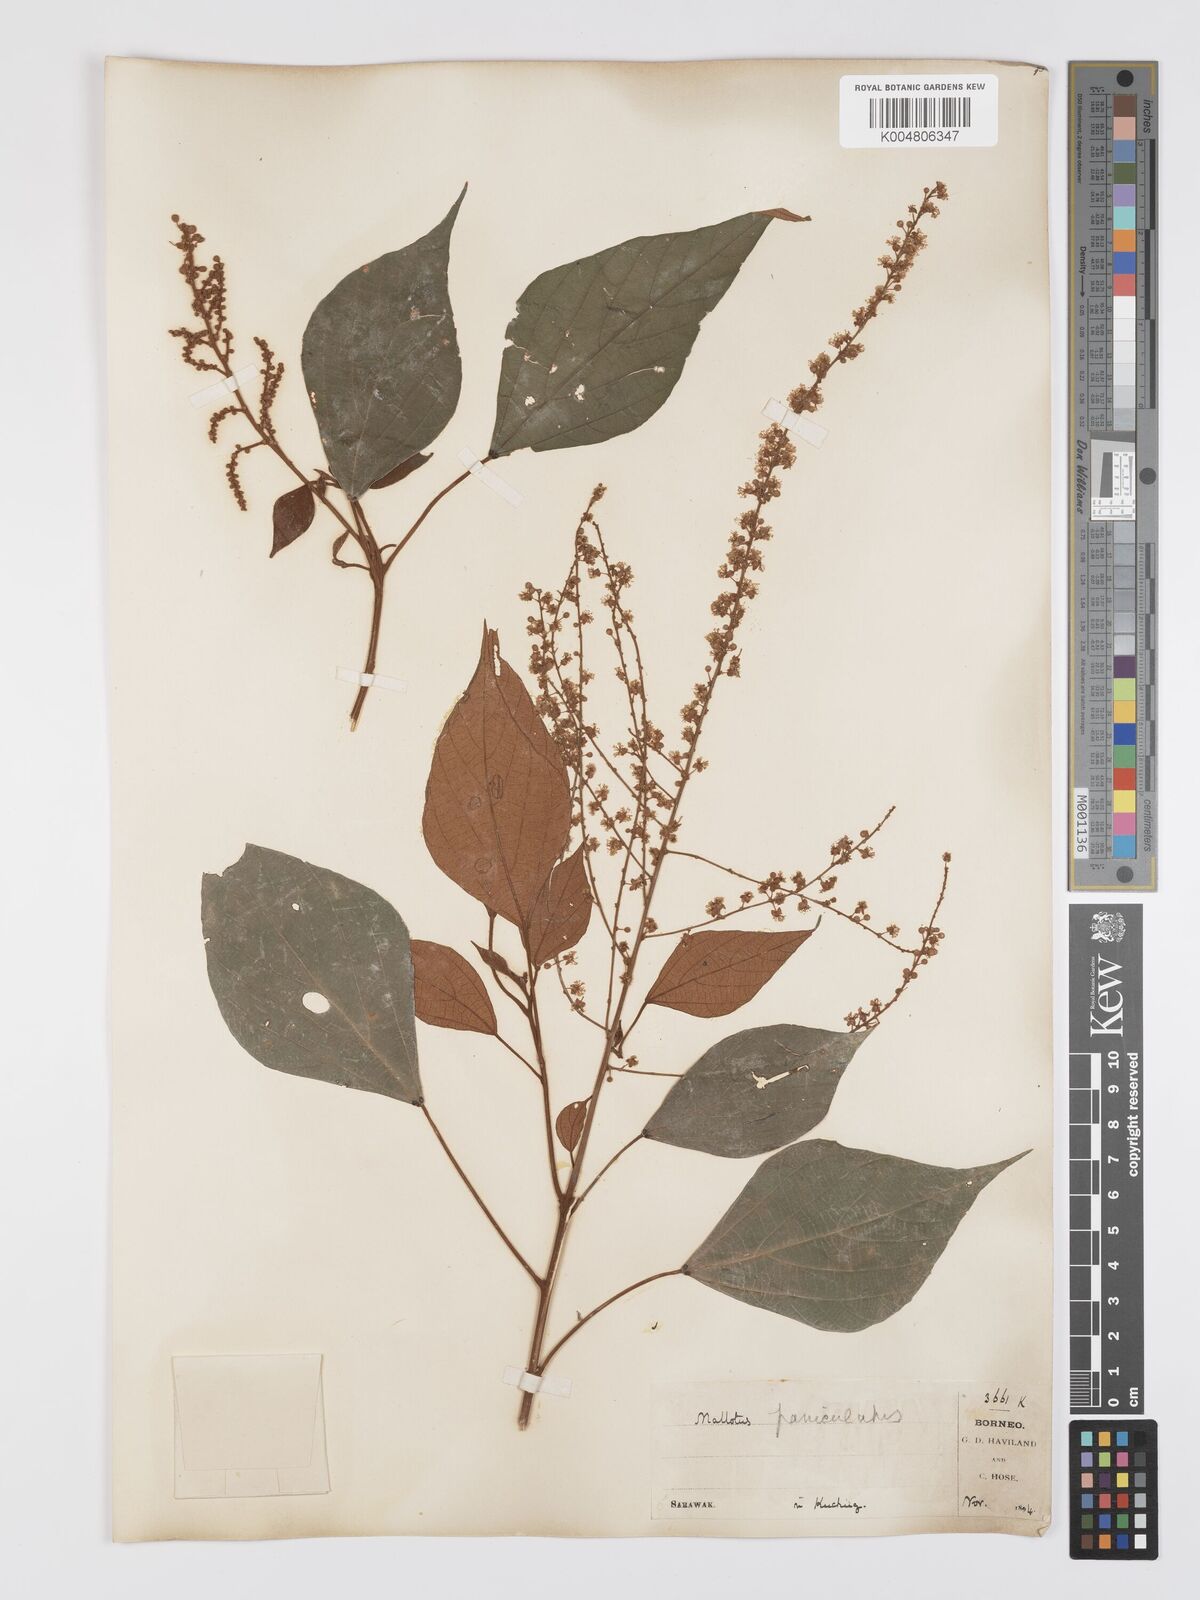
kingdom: Plantae
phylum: Tracheophyta
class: Magnoliopsida
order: Malpighiales
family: Euphorbiaceae
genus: Mallotus
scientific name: Mallotus paniculatus
